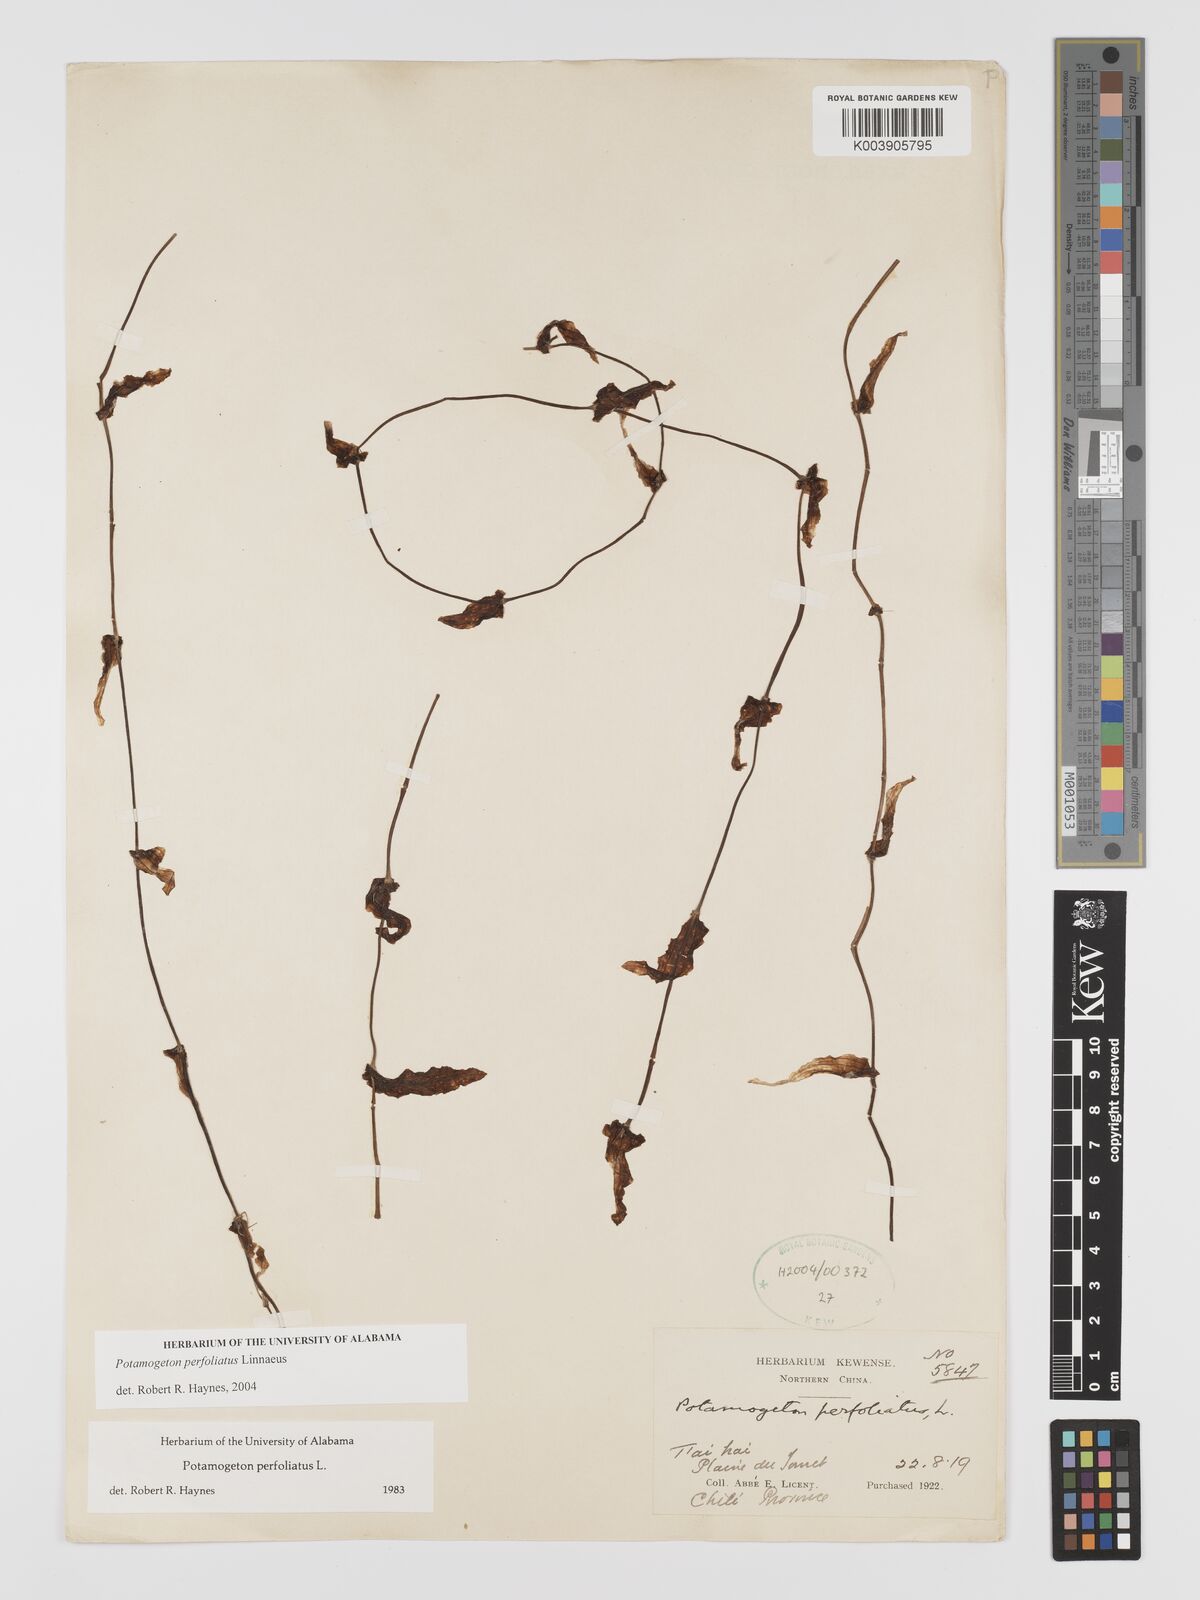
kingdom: Plantae
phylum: Tracheophyta
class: Liliopsida
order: Alismatales
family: Potamogetonaceae
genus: Potamogeton
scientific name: Potamogeton perfoliatus
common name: Perfoliate pondweed
